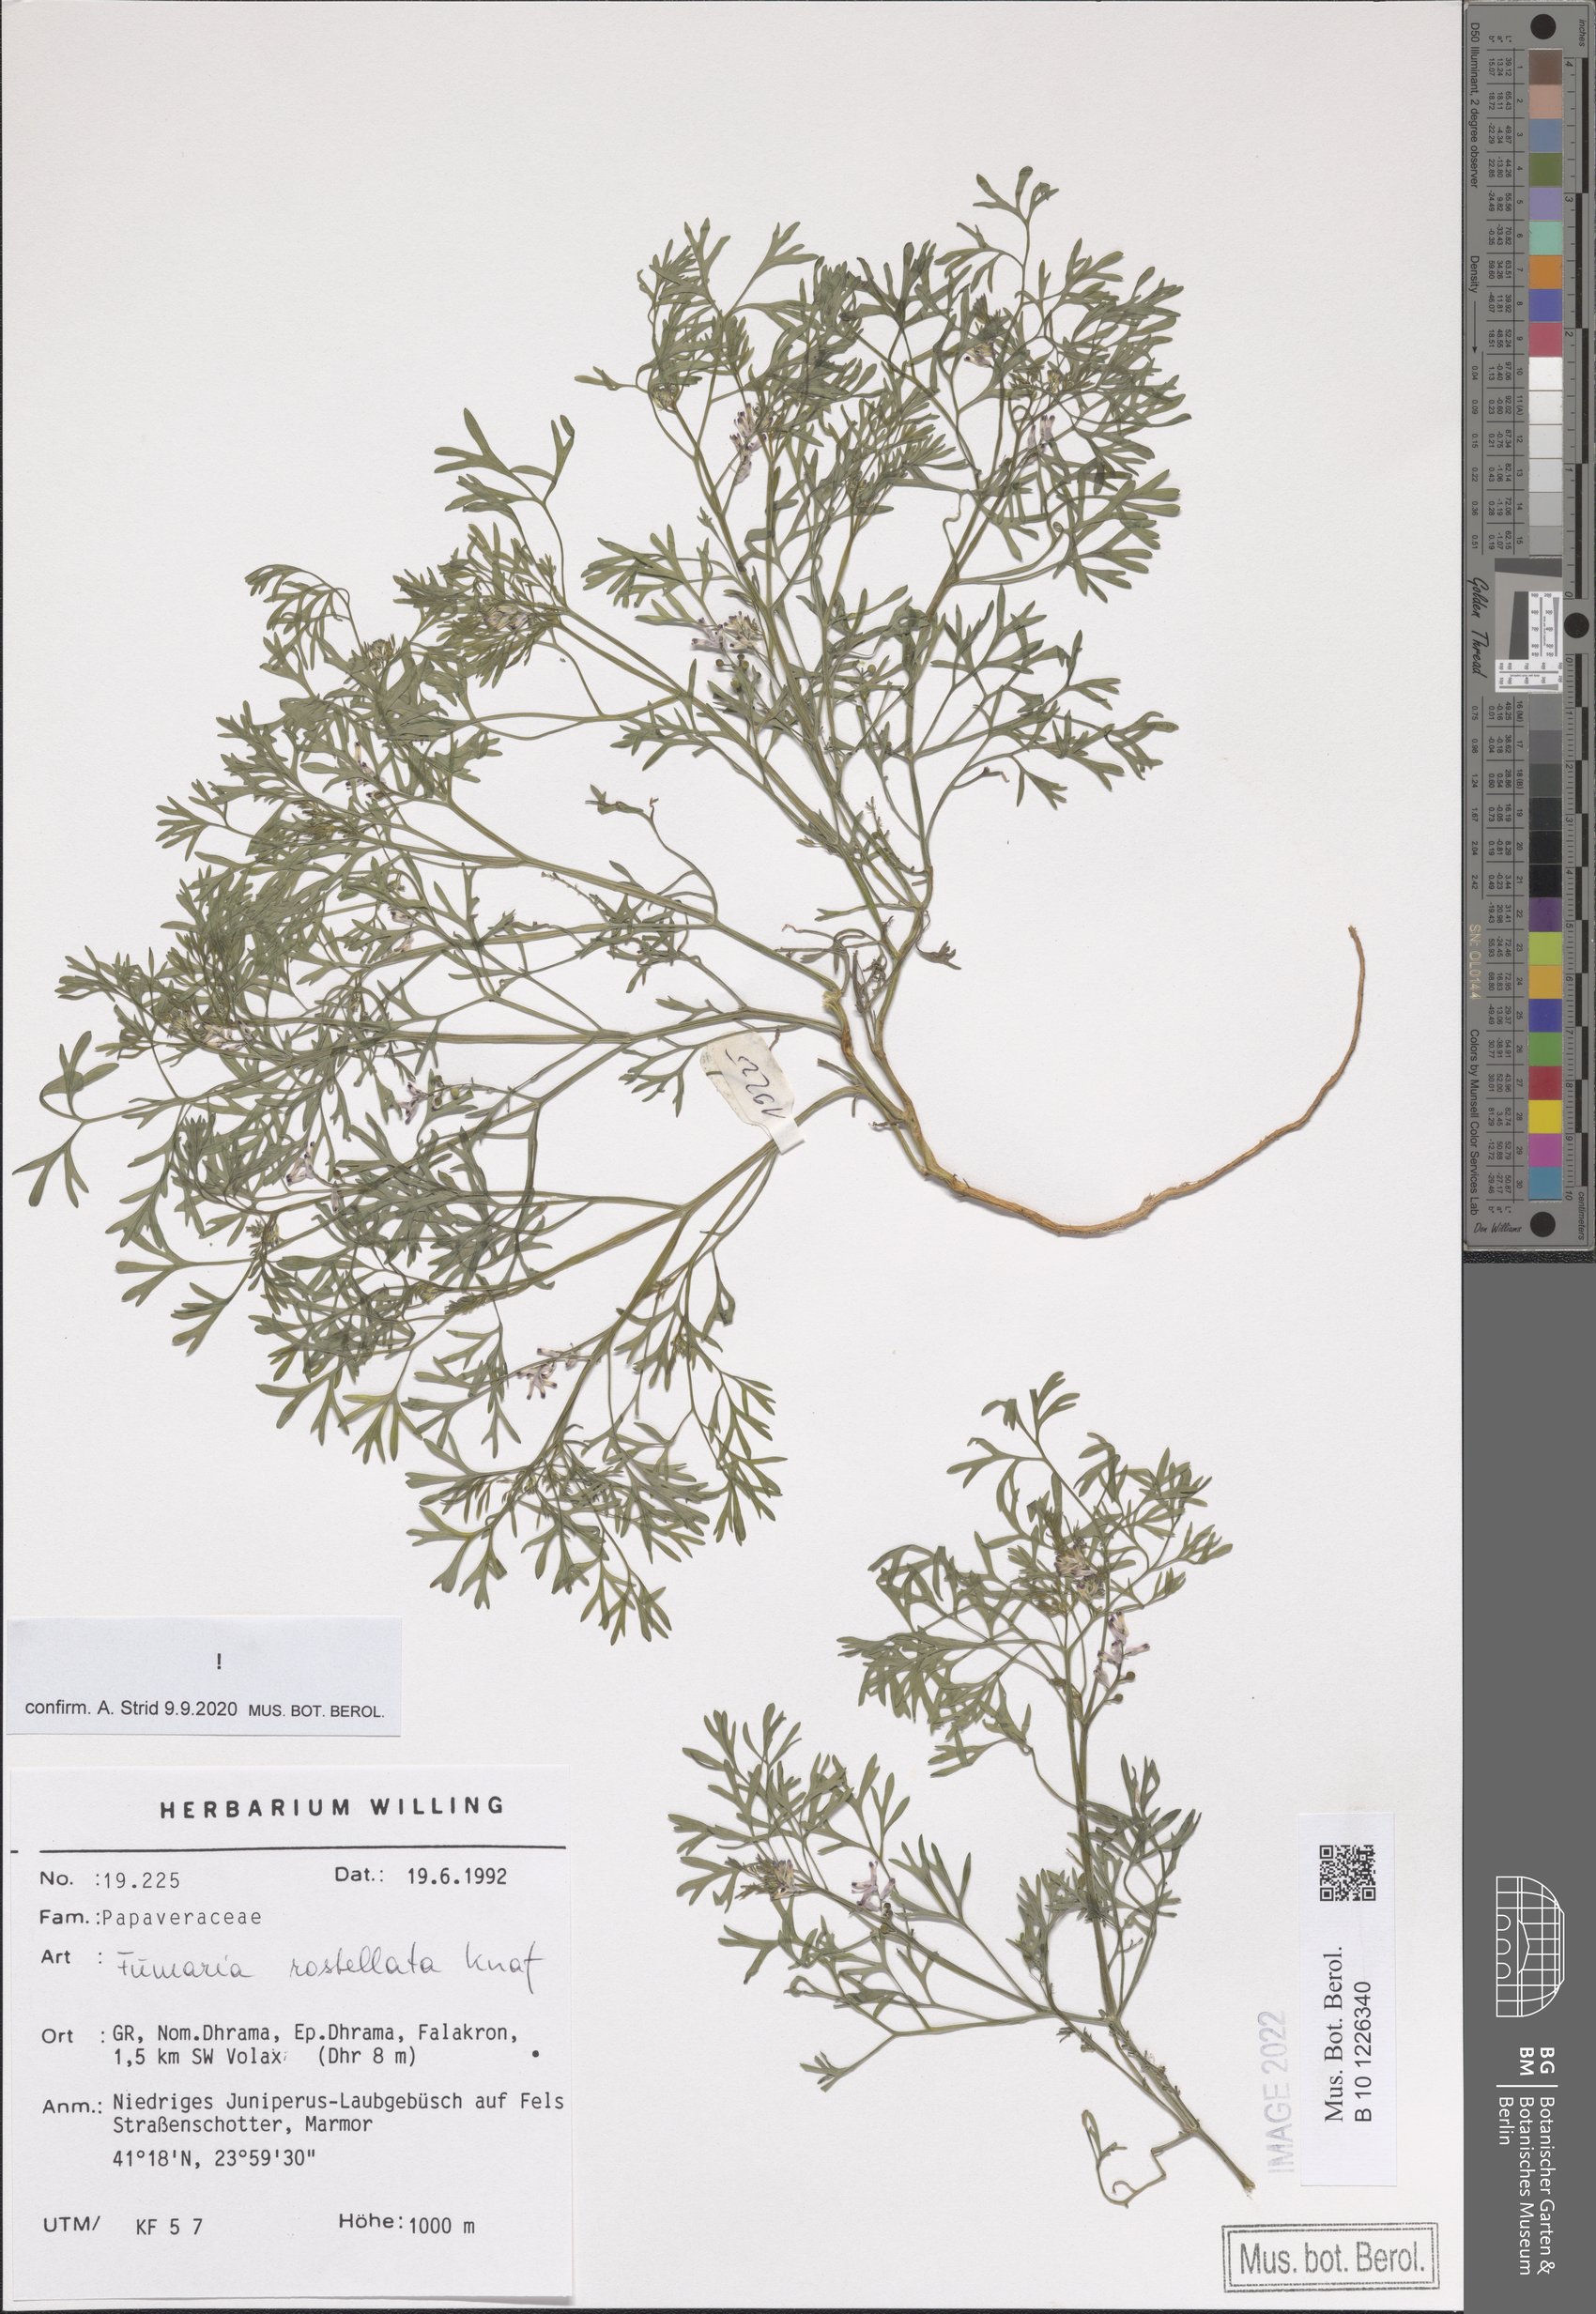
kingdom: Plantae
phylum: Tracheophyta
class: Magnoliopsida
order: Ranunculales
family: Papaveraceae
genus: Fumaria
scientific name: Fumaria rostellata
